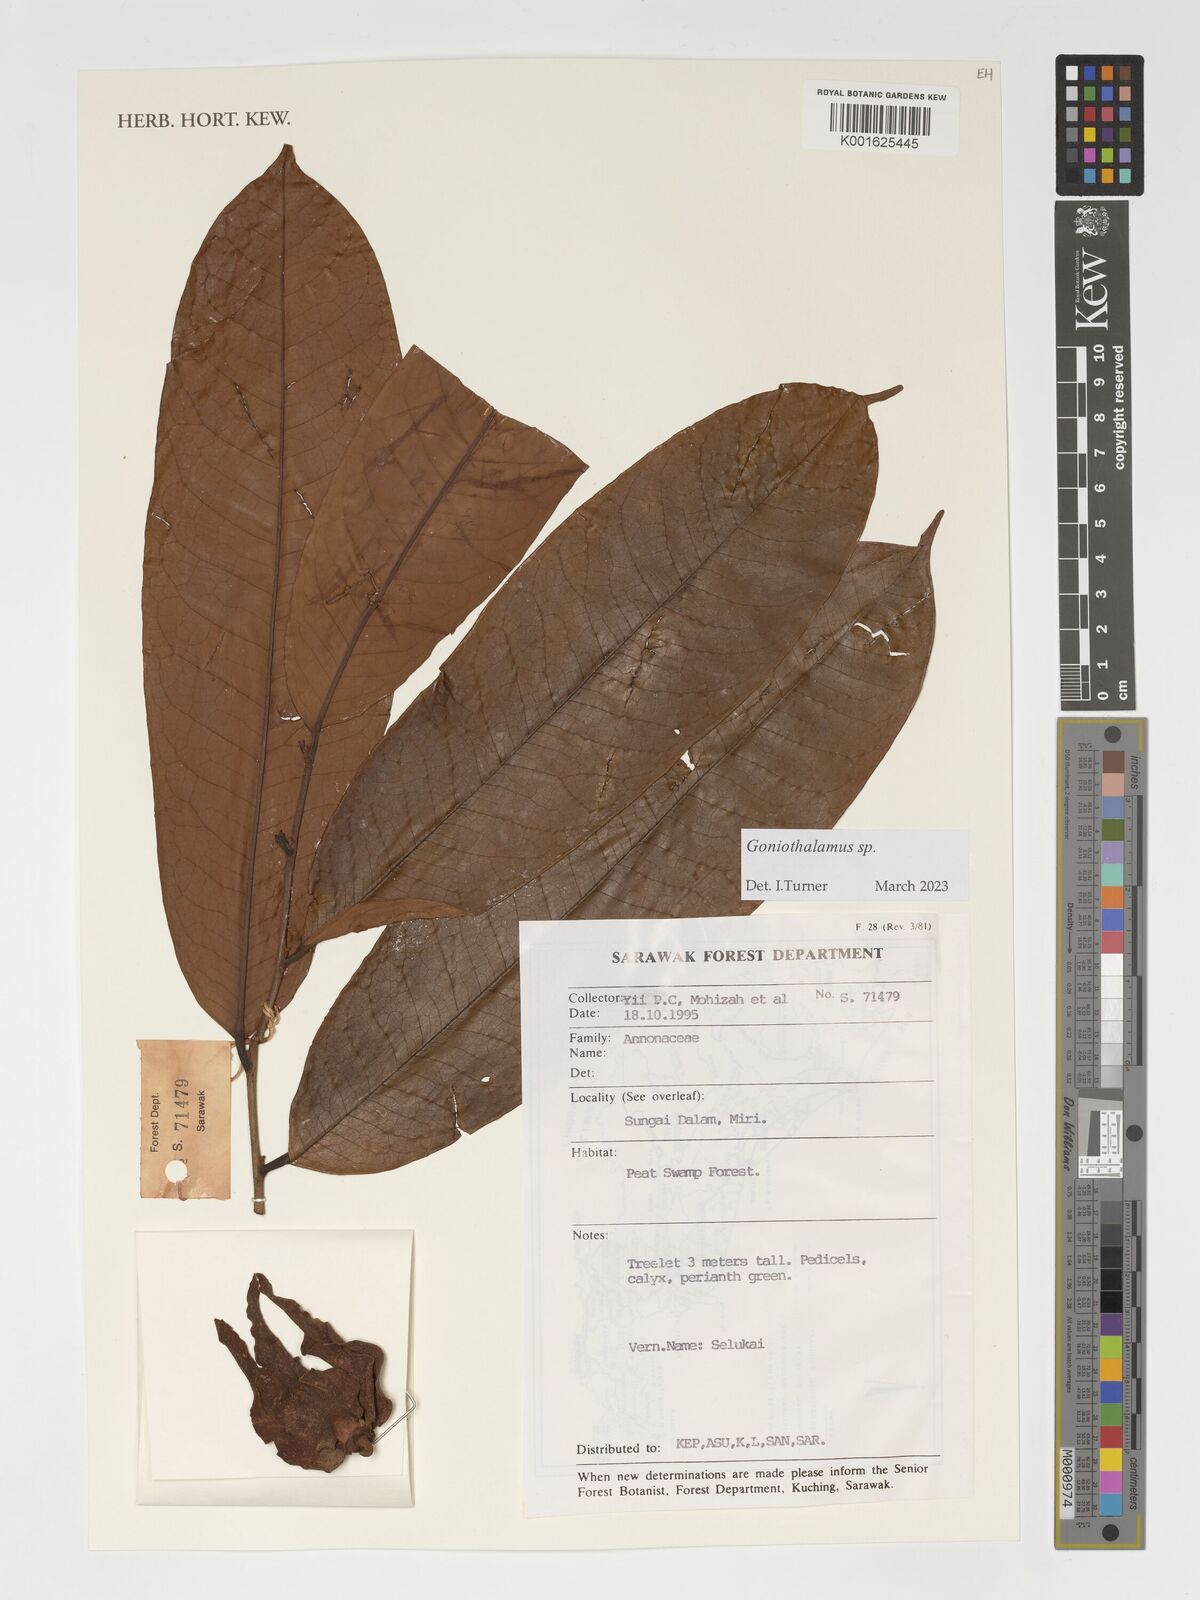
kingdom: Plantae
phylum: Tracheophyta
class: Magnoliopsida
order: Magnoliales
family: Annonaceae
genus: Goniothalamus
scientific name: Goniothalamus
